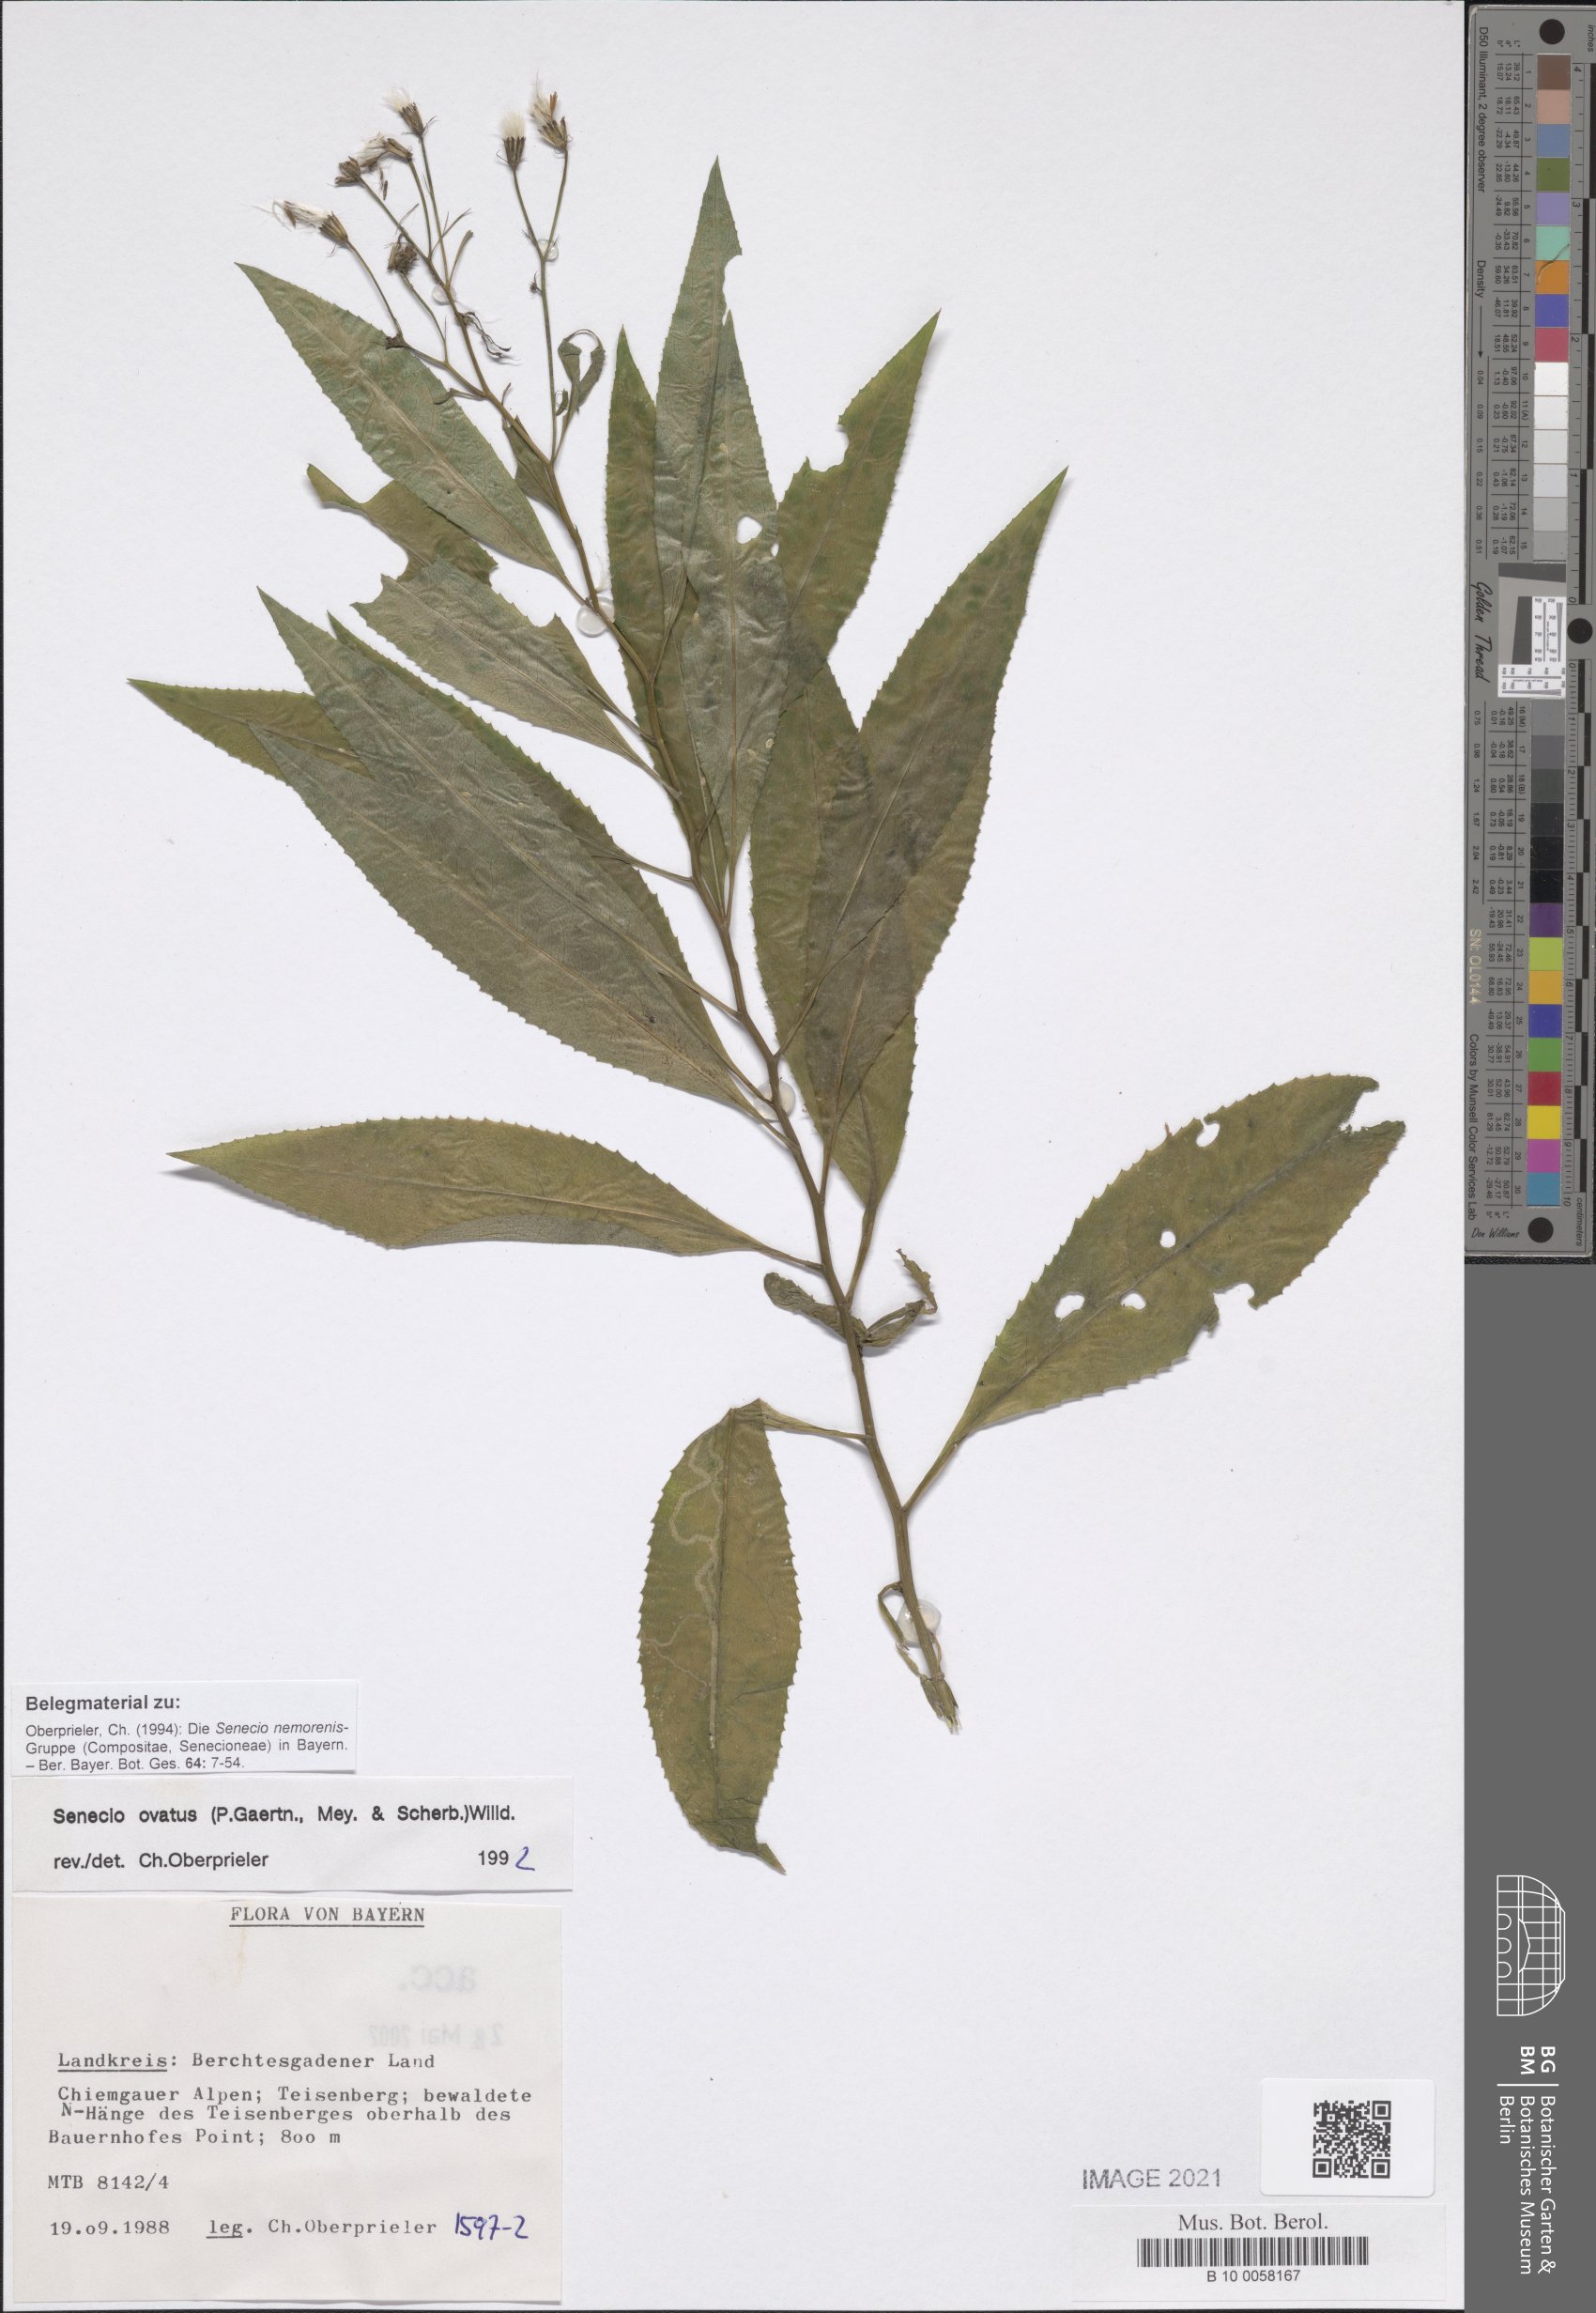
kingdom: Plantae
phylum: Tracheophyta
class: Magnoliopsida
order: Asterales
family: Asteraceae
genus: Senecio
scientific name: Senecio ovatus
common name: Wood ragwort
